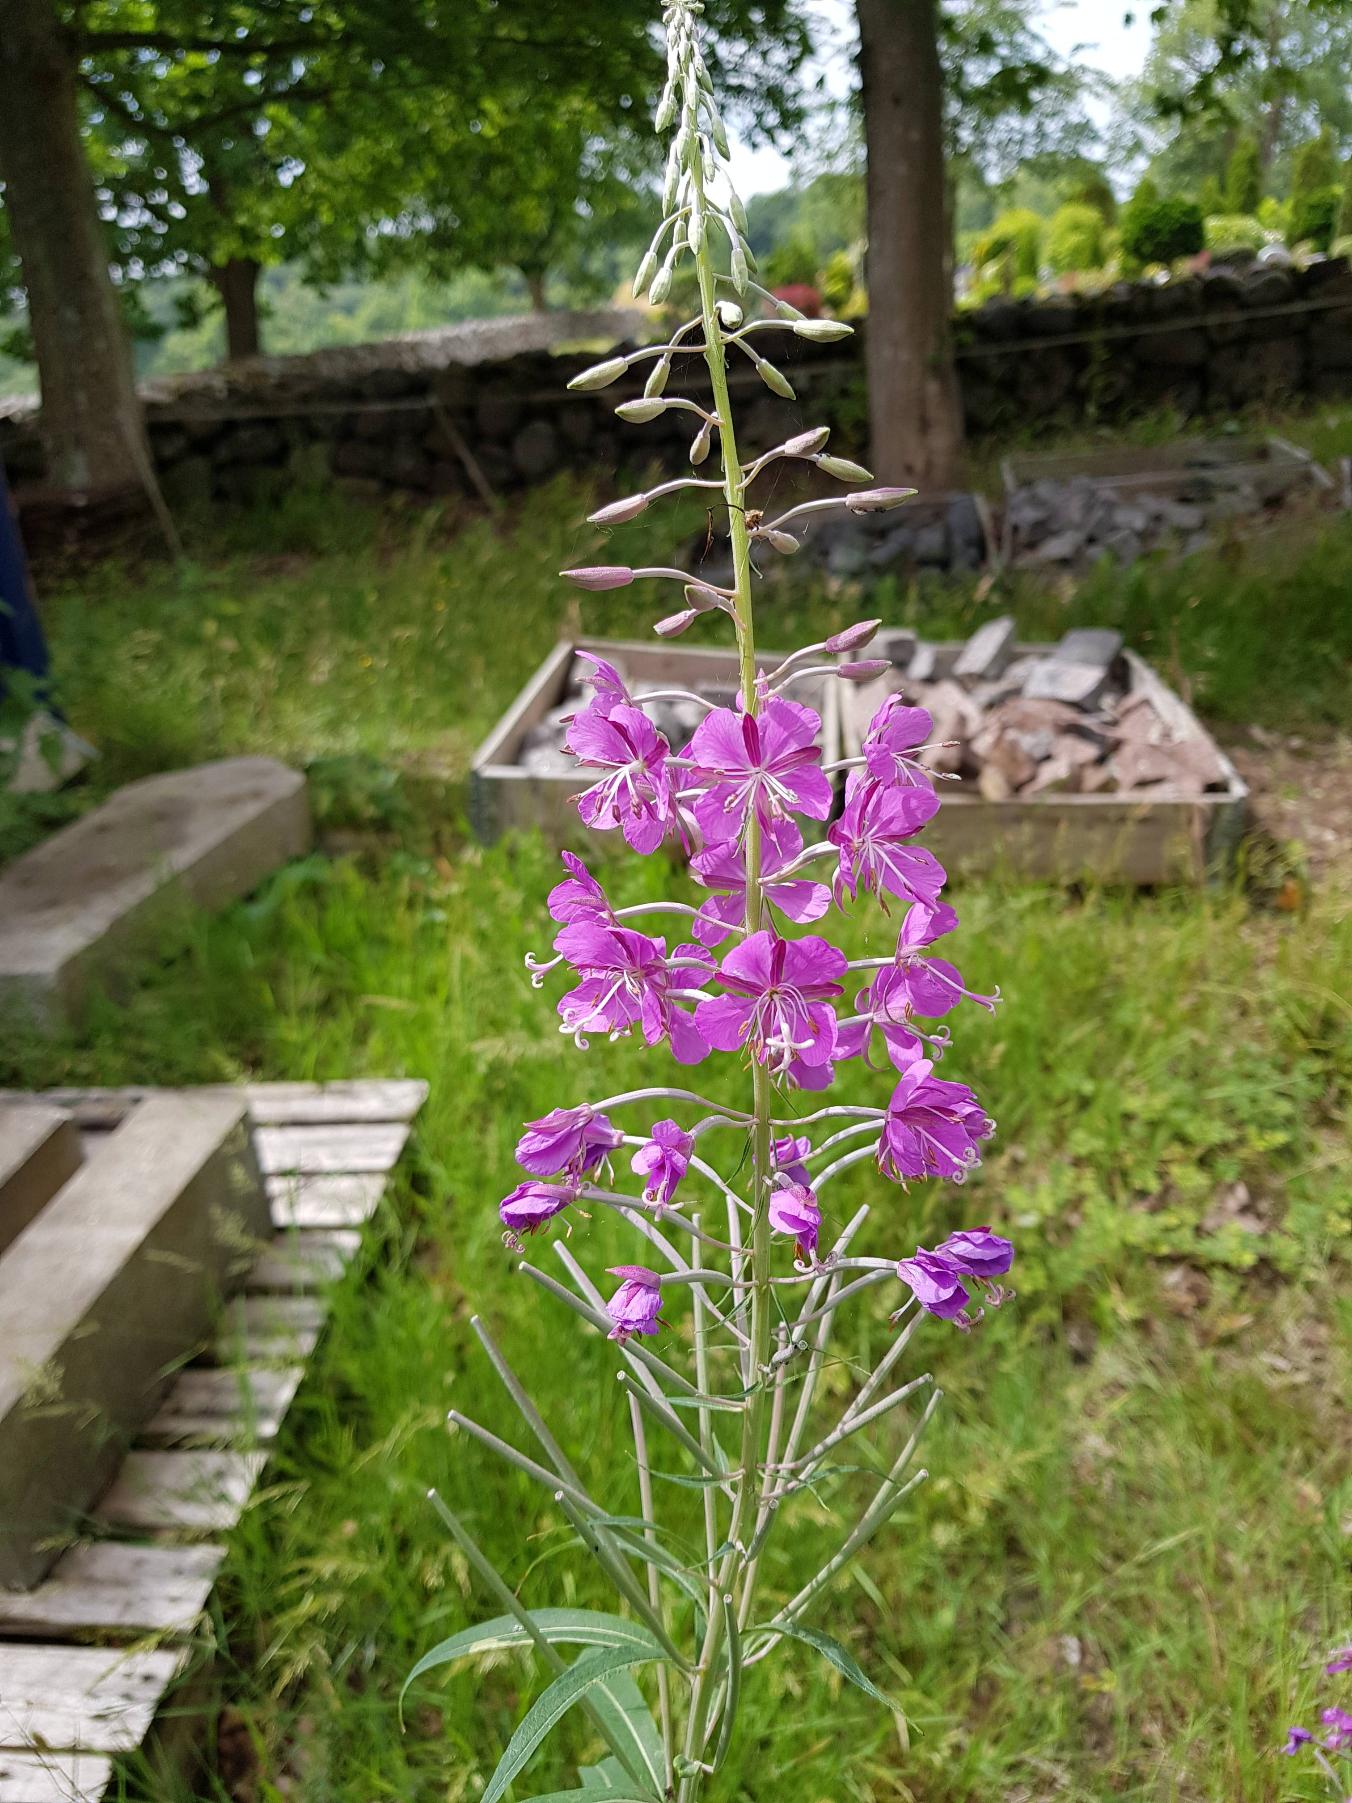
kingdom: Plantae
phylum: Tracheophyta
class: Magnoliopsida
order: Myrtales
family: Onagraceae
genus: Chamaenerion
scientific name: Chamaenerion angustifolium
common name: Gederams
